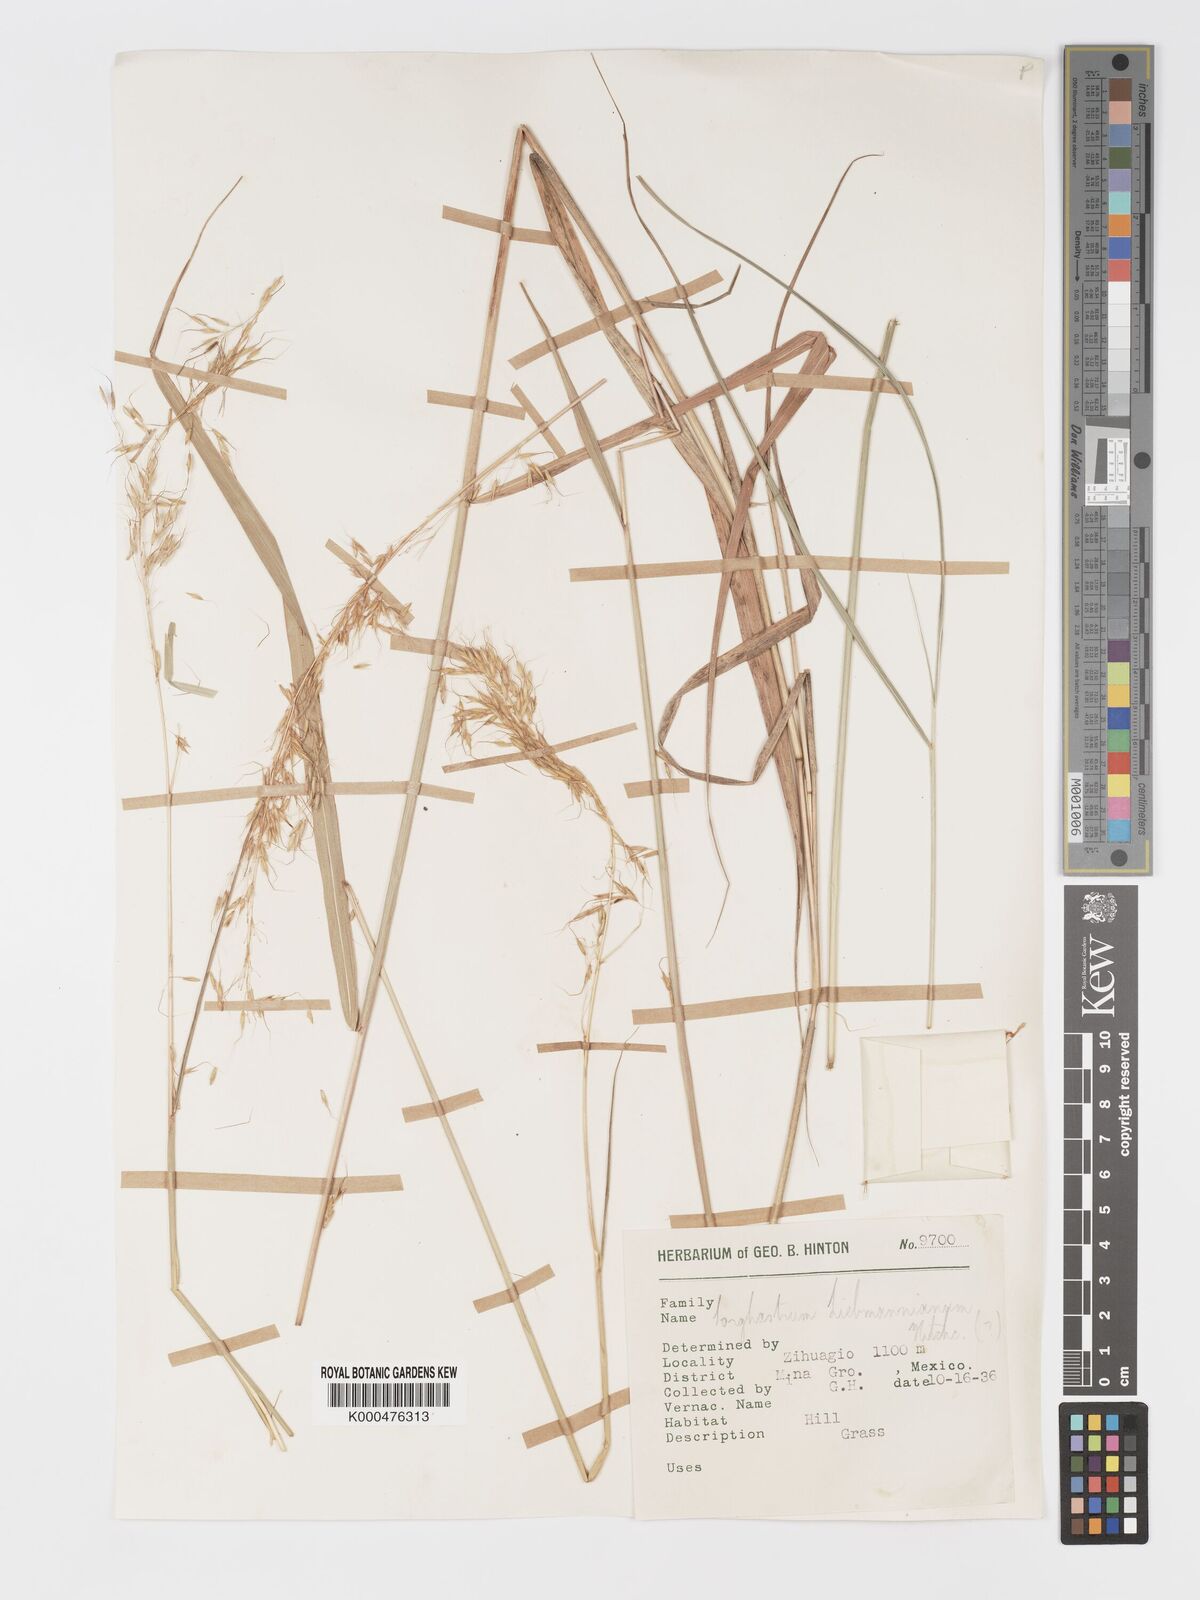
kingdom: Plantae
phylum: Tracheophyta
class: Liliopsida
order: Poales
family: Poaceae
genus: Sorghastrum
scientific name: Sorghastrum incompletum
